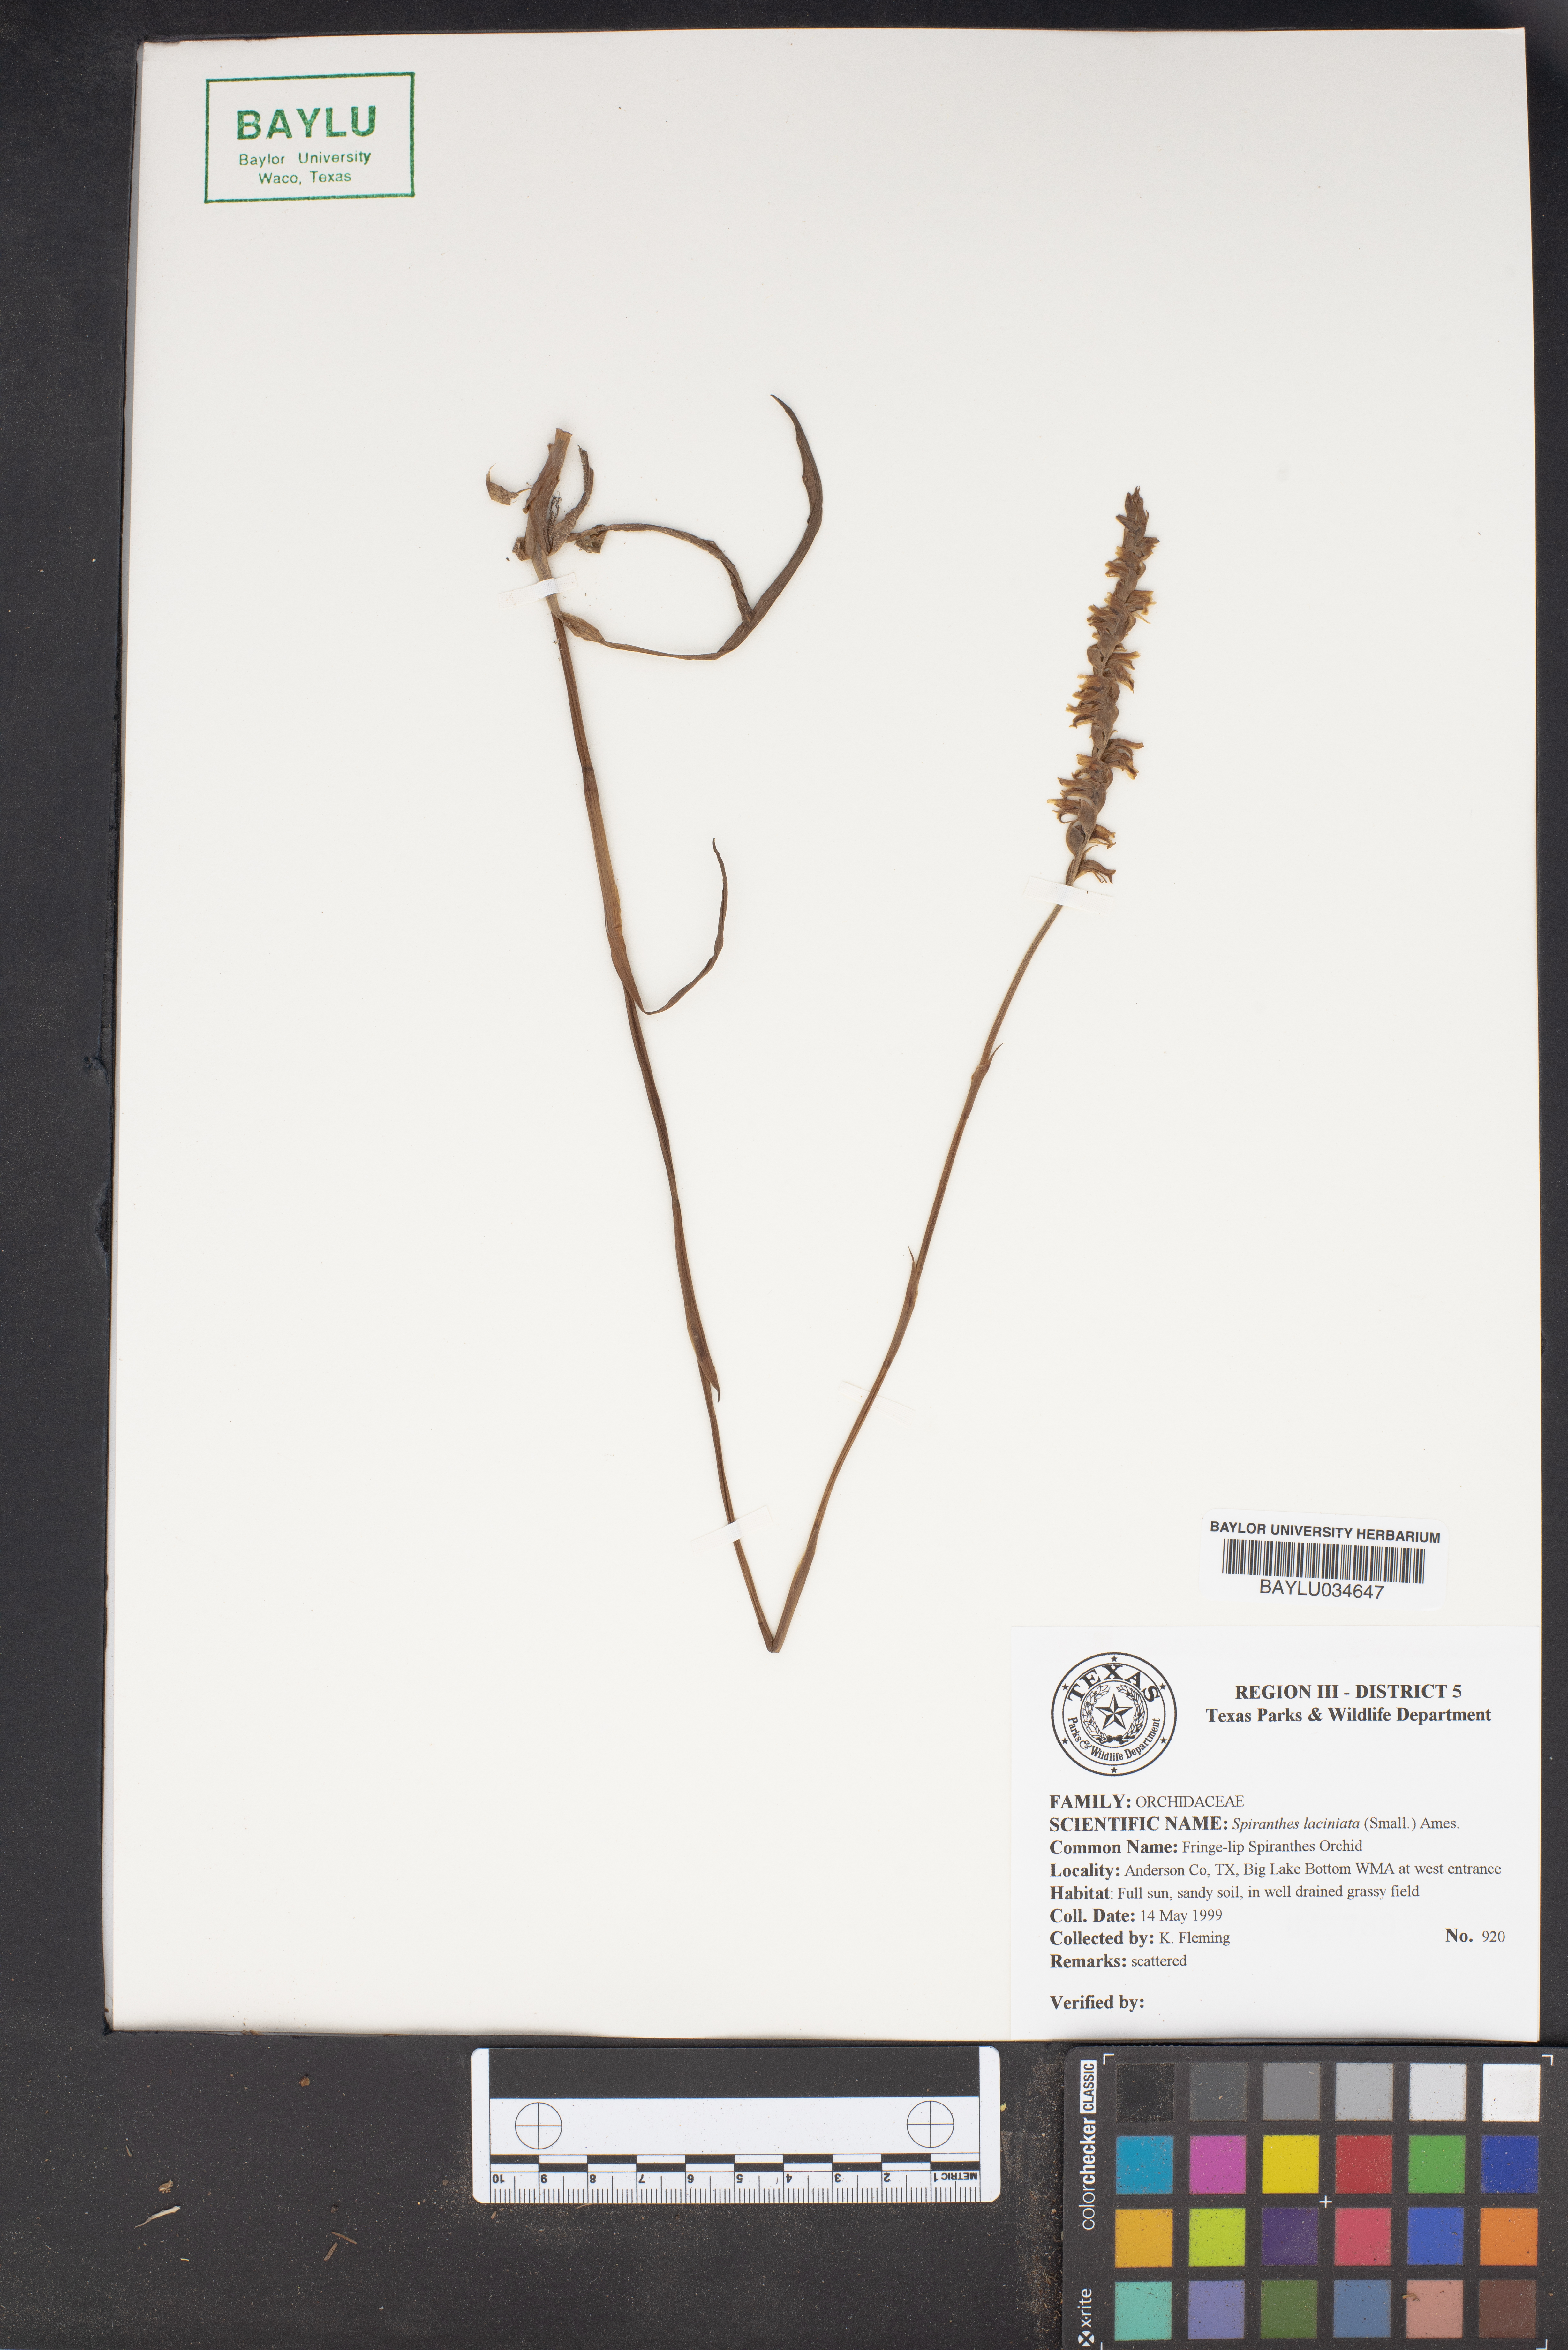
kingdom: Plantae
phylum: Tracheophyta
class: Liliopsida
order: Asparagales
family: Orchidaceae
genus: Spiranthes
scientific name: Spiranthes laciniata
